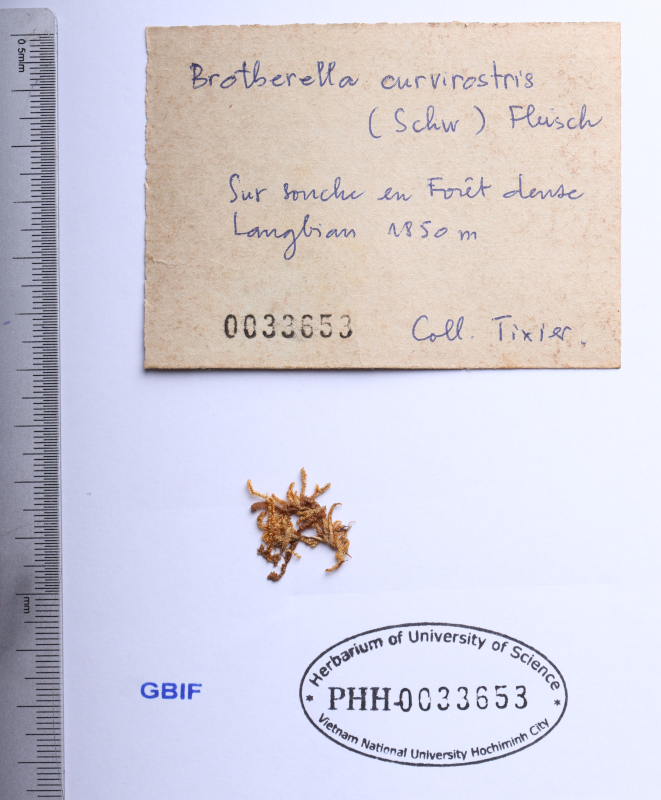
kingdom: Plantae
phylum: Bryophyta
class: Bryopsida
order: Hypnales
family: Pylaisiadelphaceae
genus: Brotherella
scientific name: Brotherella curvirostris
